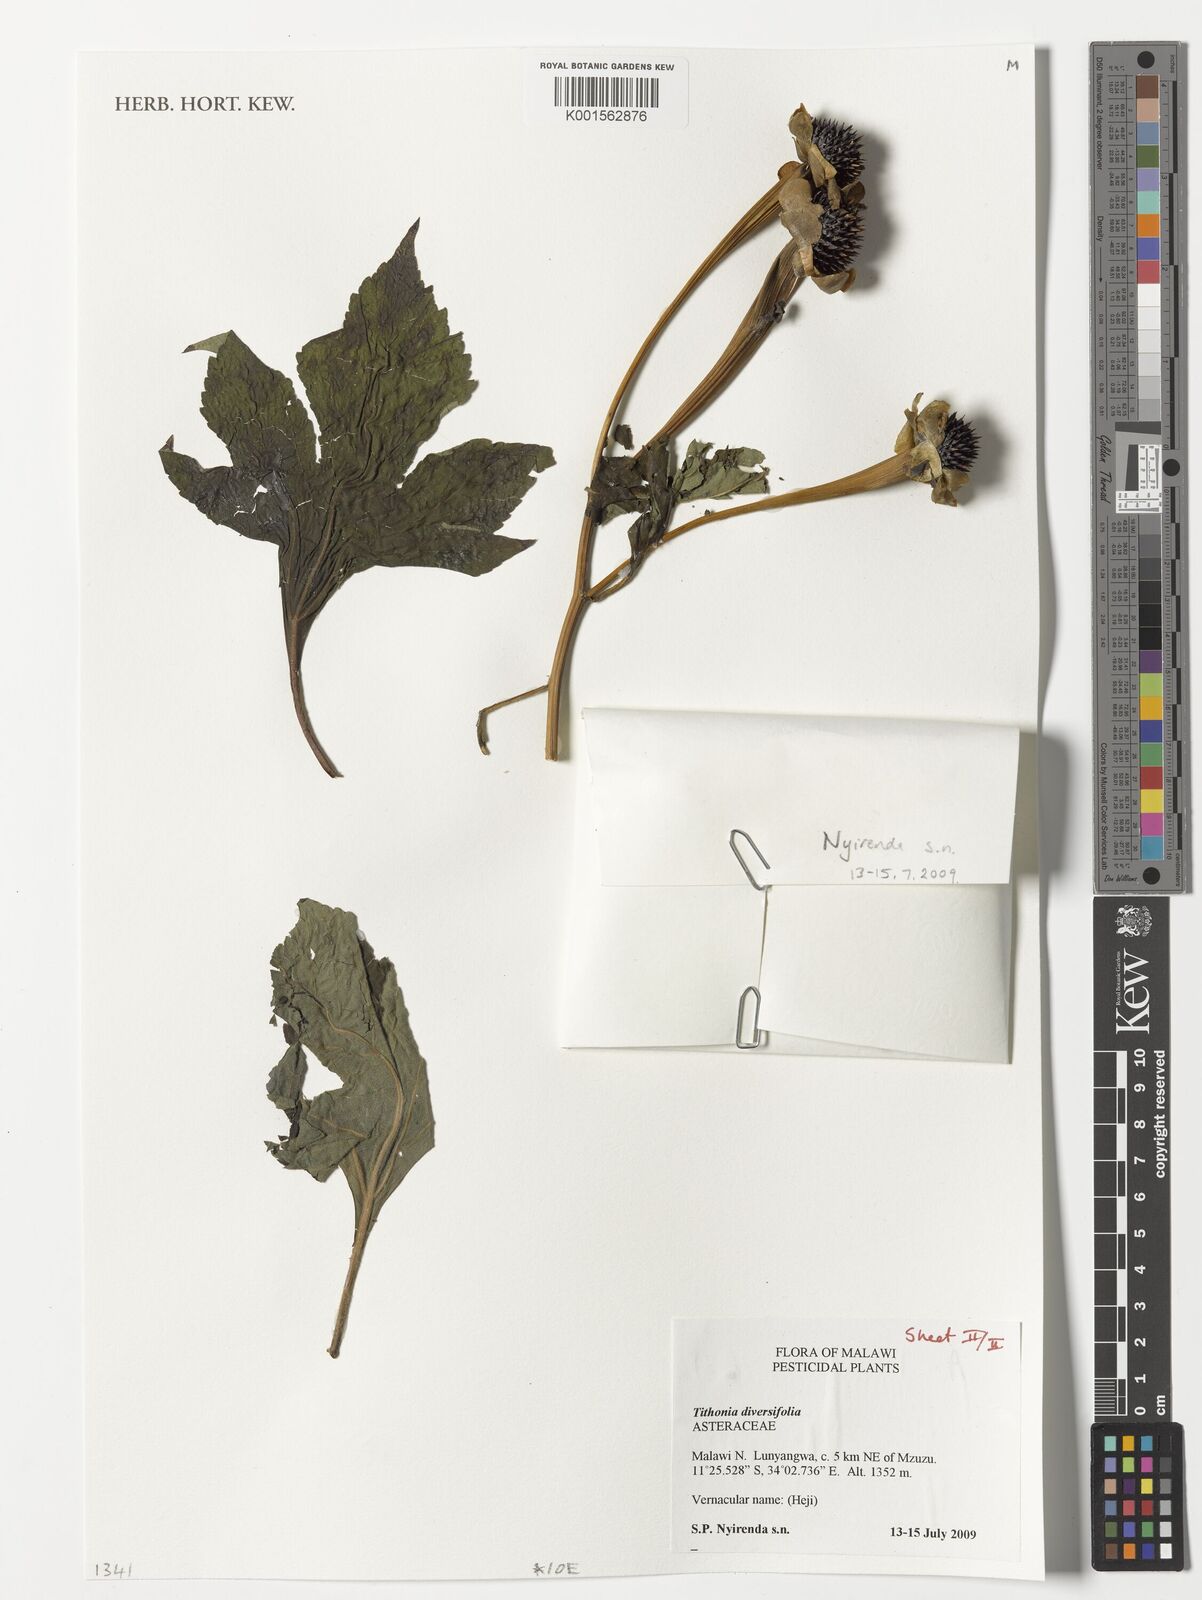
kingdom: Plantae
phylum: Tracheophyta
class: Magnoliopsida
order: Asterales
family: Asteraceae
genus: Tithonia
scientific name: Tithonia diversifolia
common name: Tree marigold
